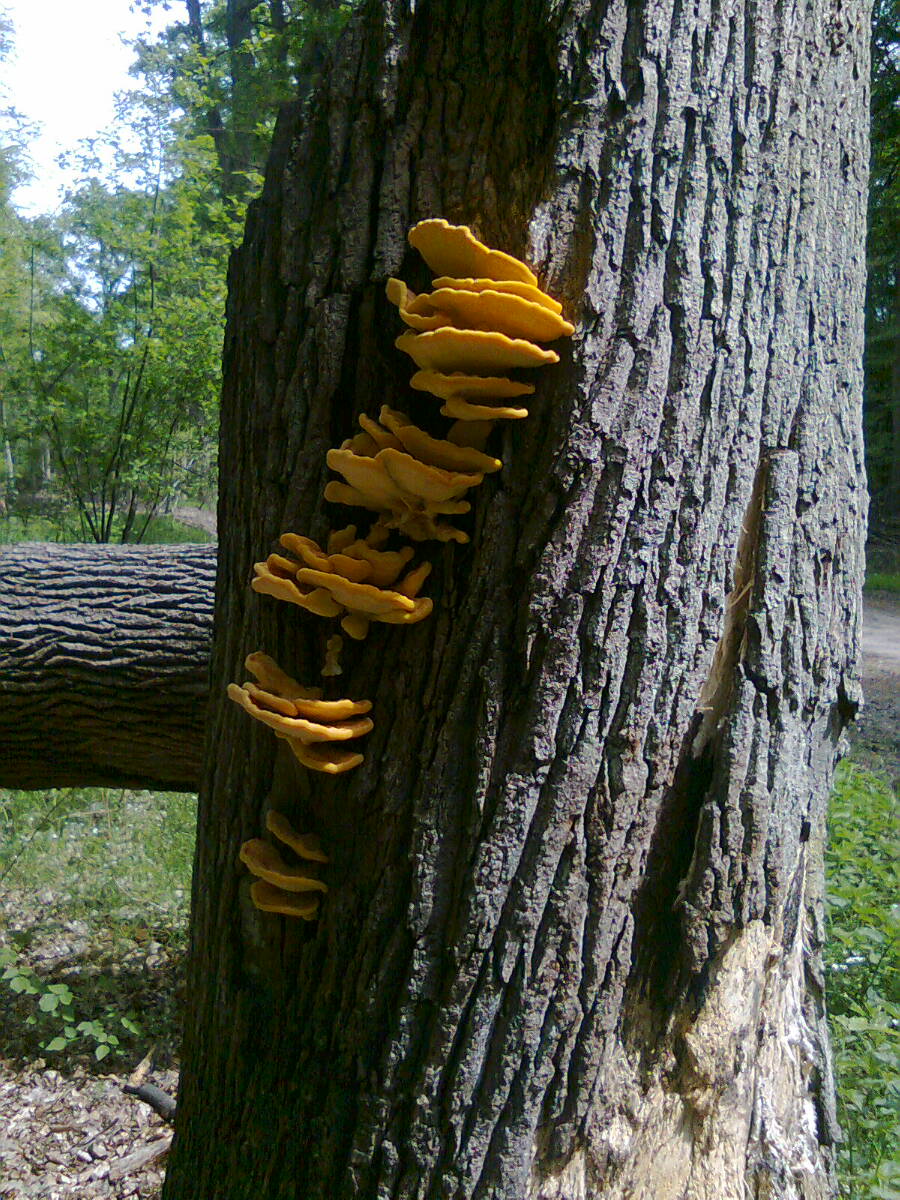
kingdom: Fungi
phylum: Basidiomycota
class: Agaricomycetes
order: Polyporales
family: Laetiporaceae
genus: Laetiporus
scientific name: Laetiporus sulphureus
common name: svovlporesvamp
